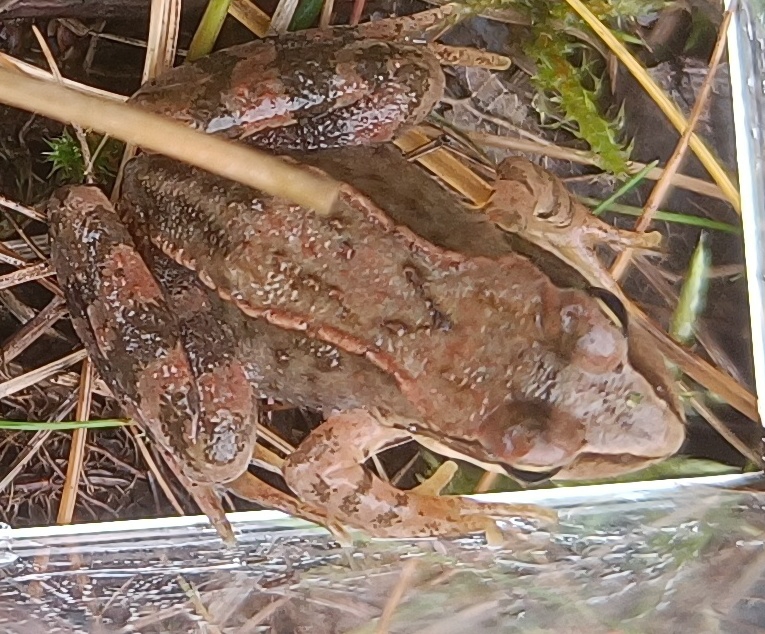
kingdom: Animalia
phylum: Chordata
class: Amphibia
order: Anura
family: Ranidae
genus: Rana
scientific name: Rana temporaria
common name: Butsnudet frø
